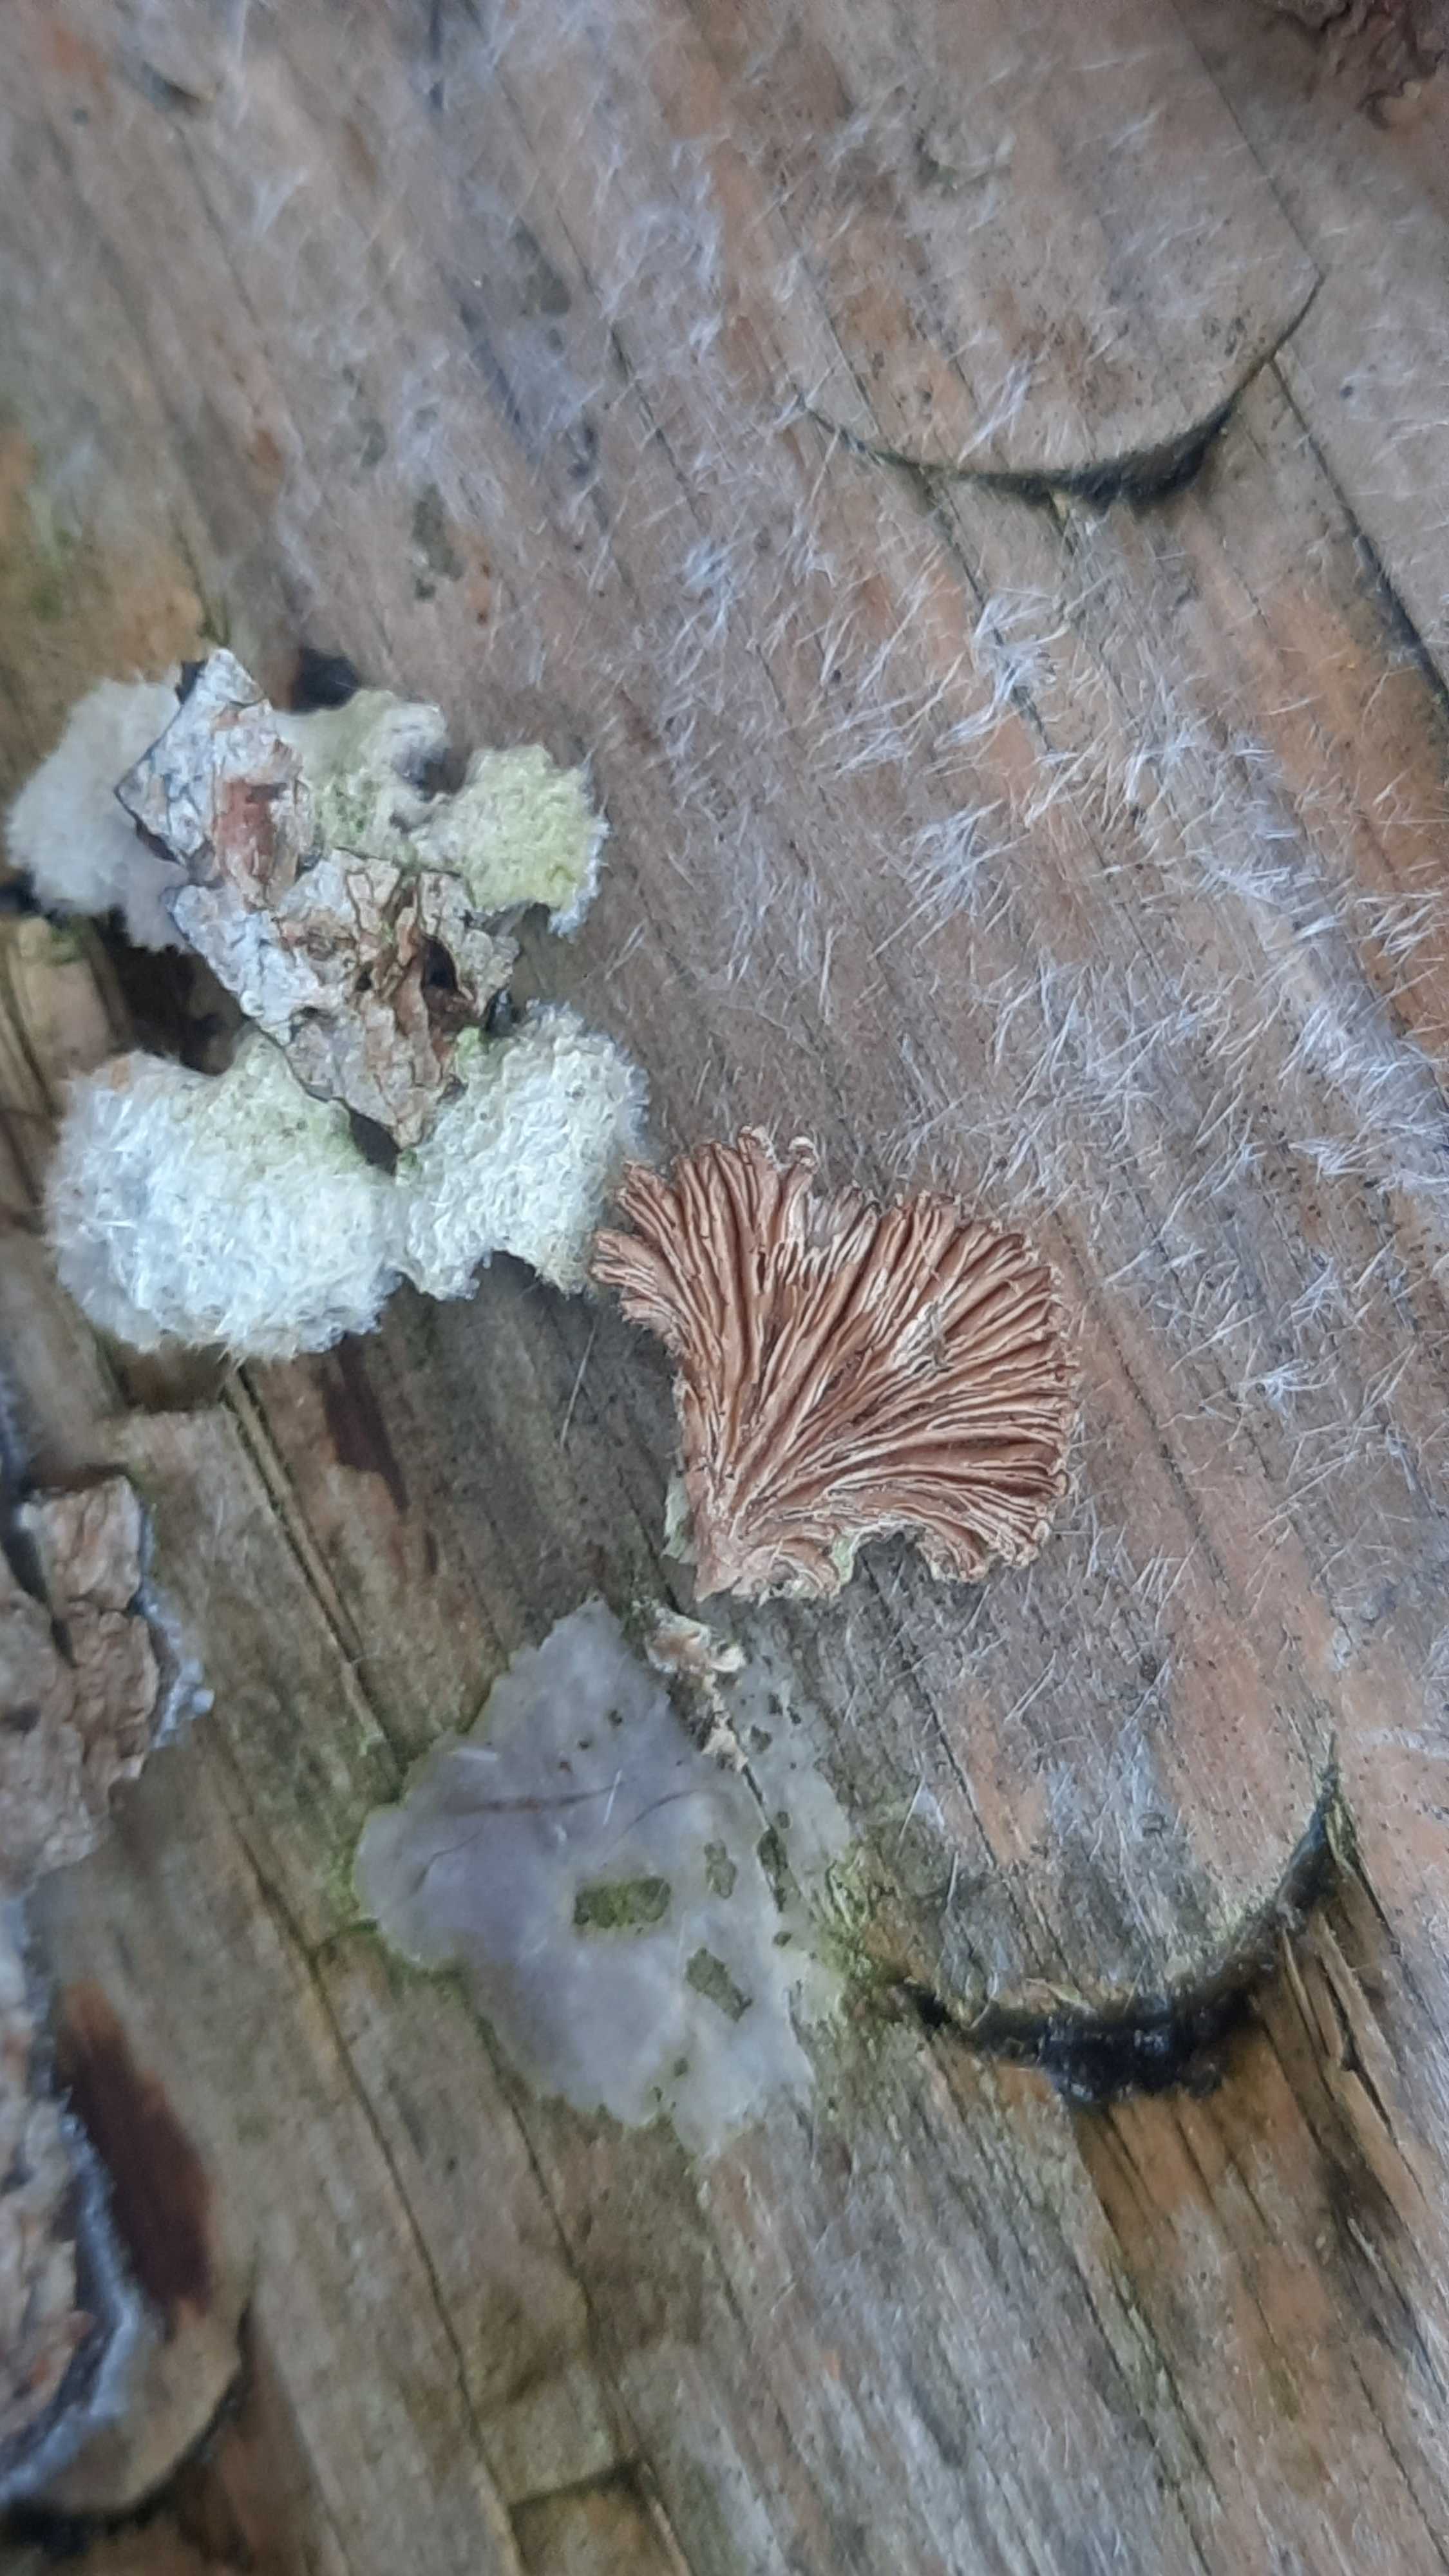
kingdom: Fungi
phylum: Basidiomycota
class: Agaricomycetes
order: Agaricales
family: Schizophyllaceae
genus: Schizophyllum
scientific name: Schizophyllum commune
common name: kløvblad
